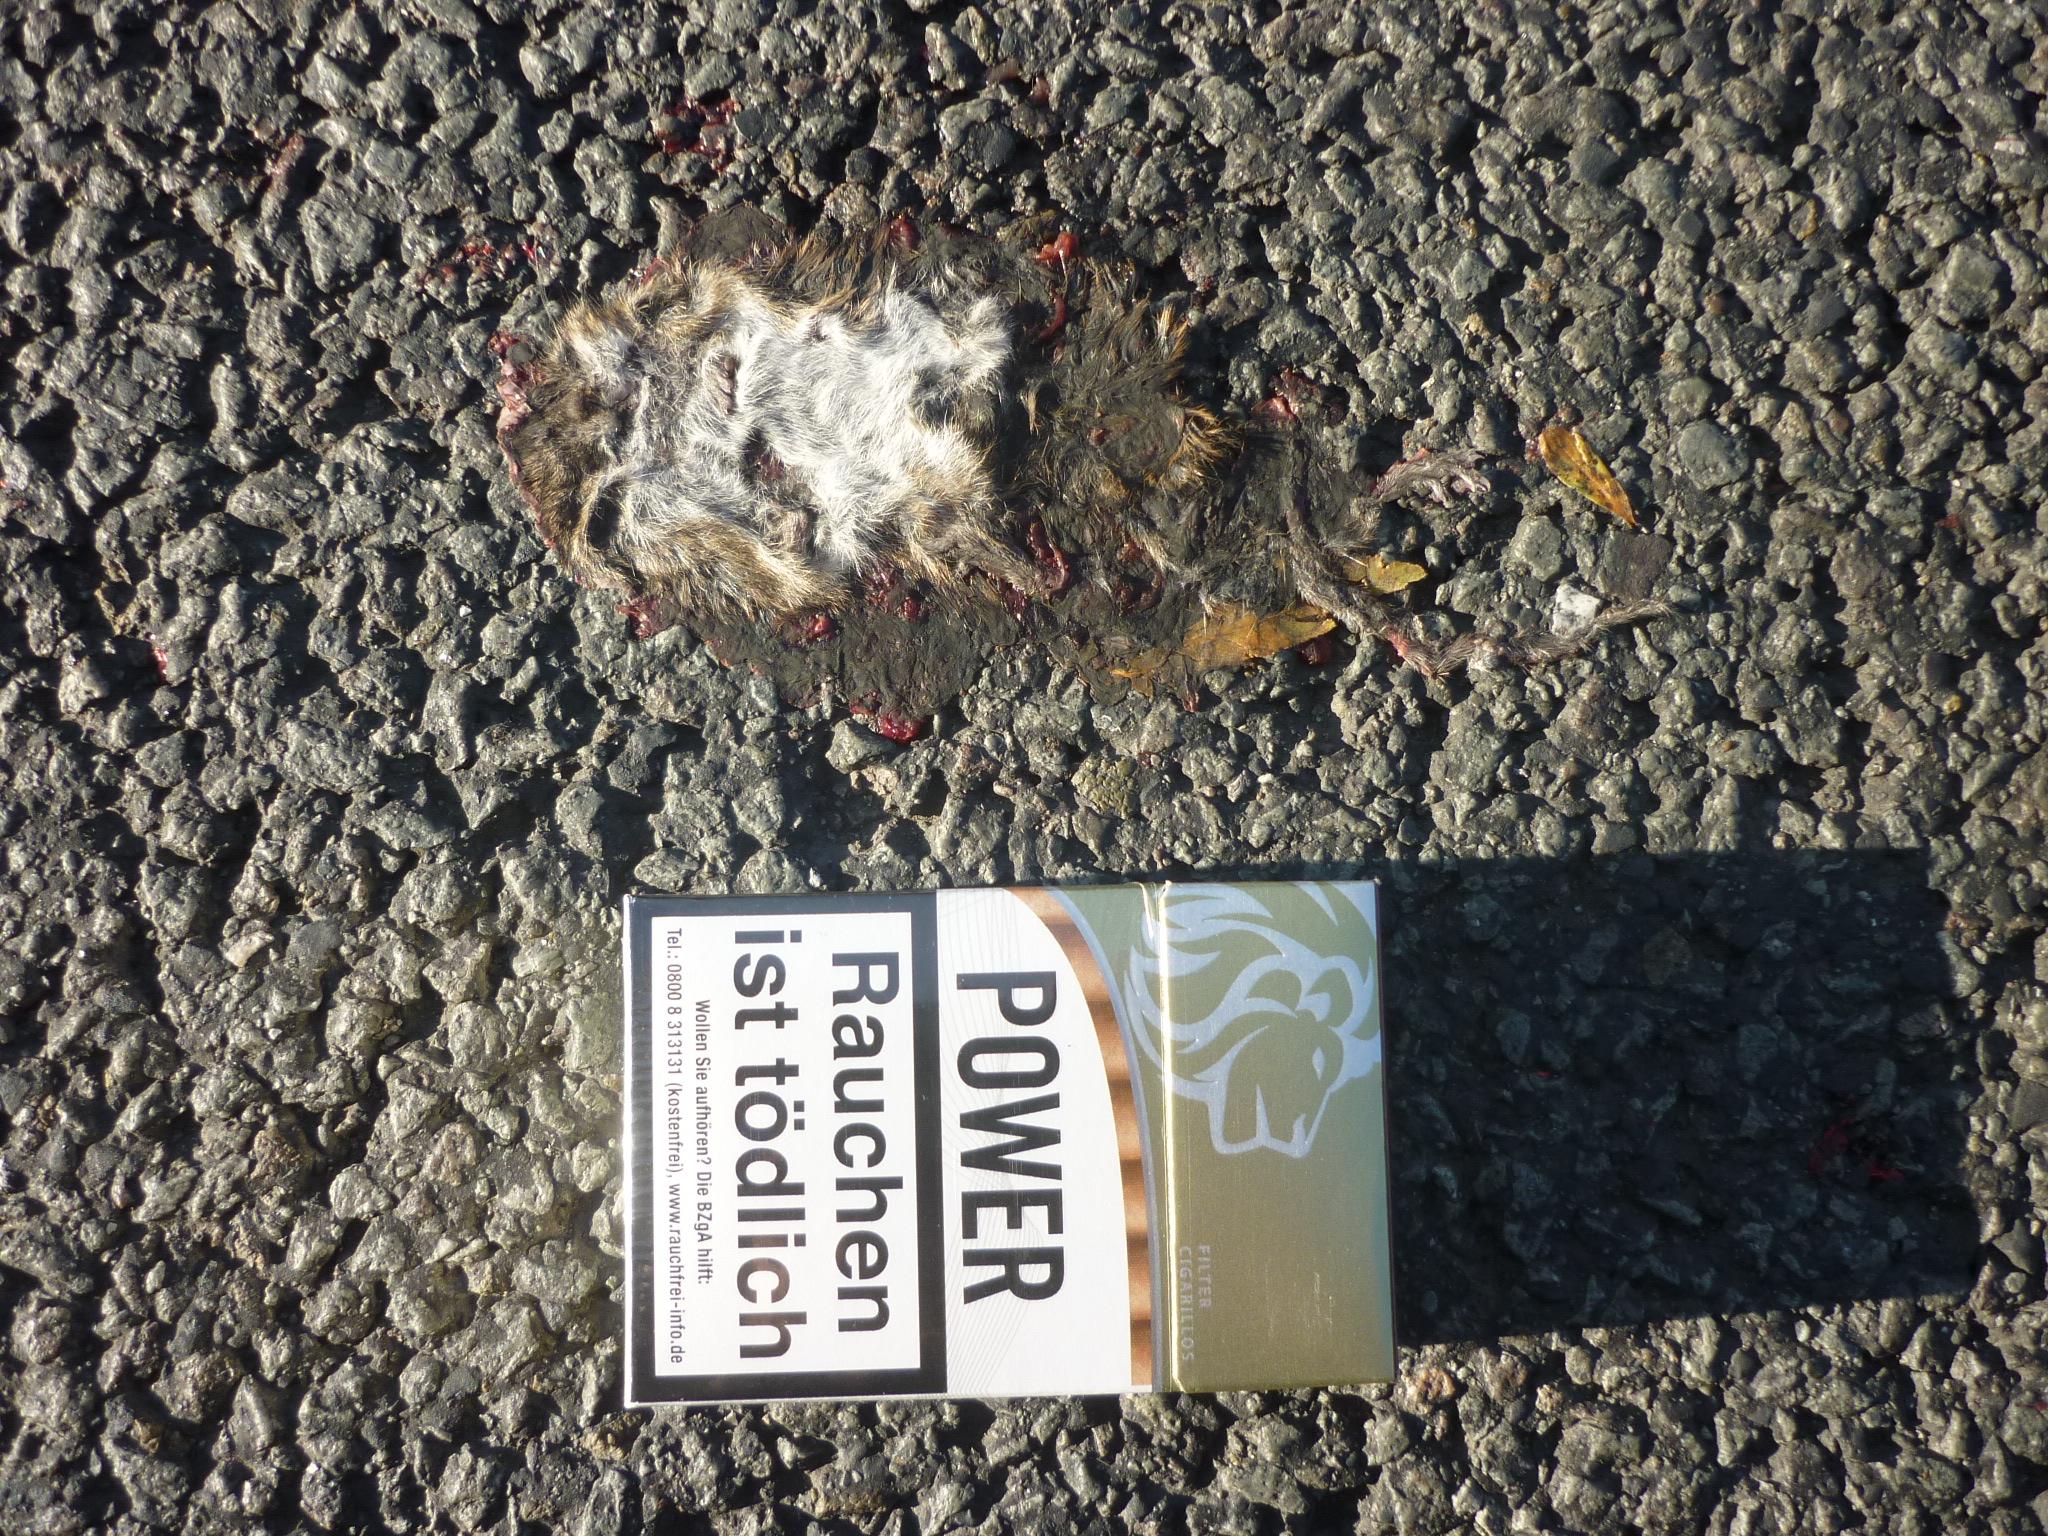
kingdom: Animalia
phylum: Chordata
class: Mammalia
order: Rodentia
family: Cricetidae
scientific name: Cricetidae
